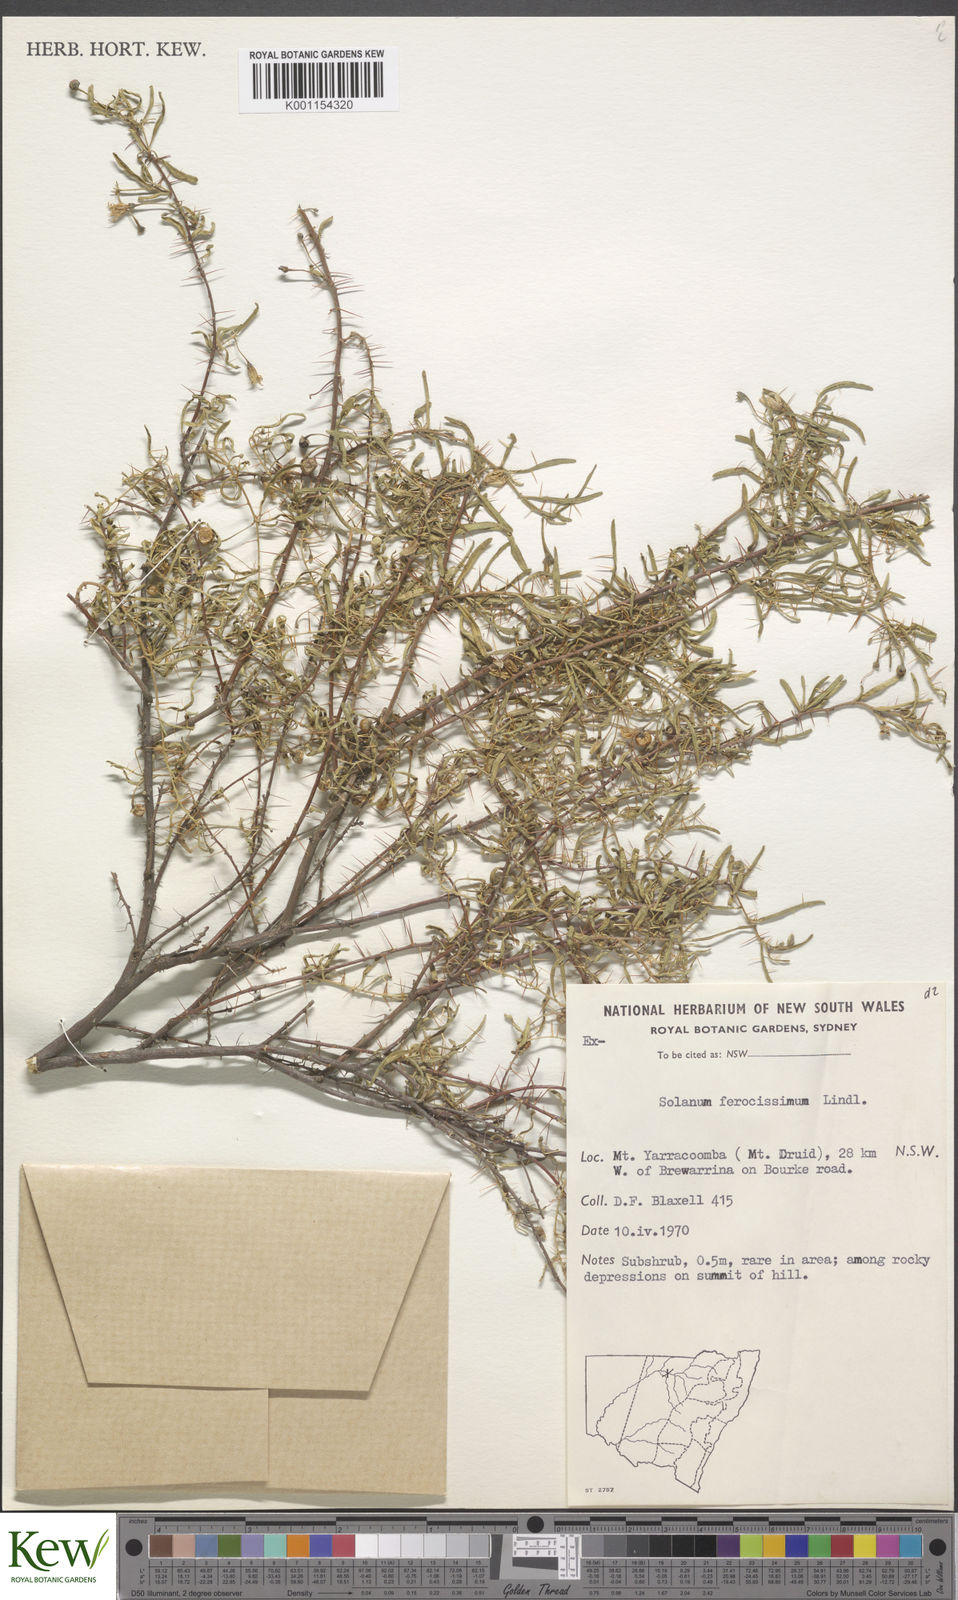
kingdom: Plantae
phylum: Tracheophyta
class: Magnoliopsida
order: Solanales
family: Solanaceae
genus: Solanum
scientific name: Solanum ferocissimum
